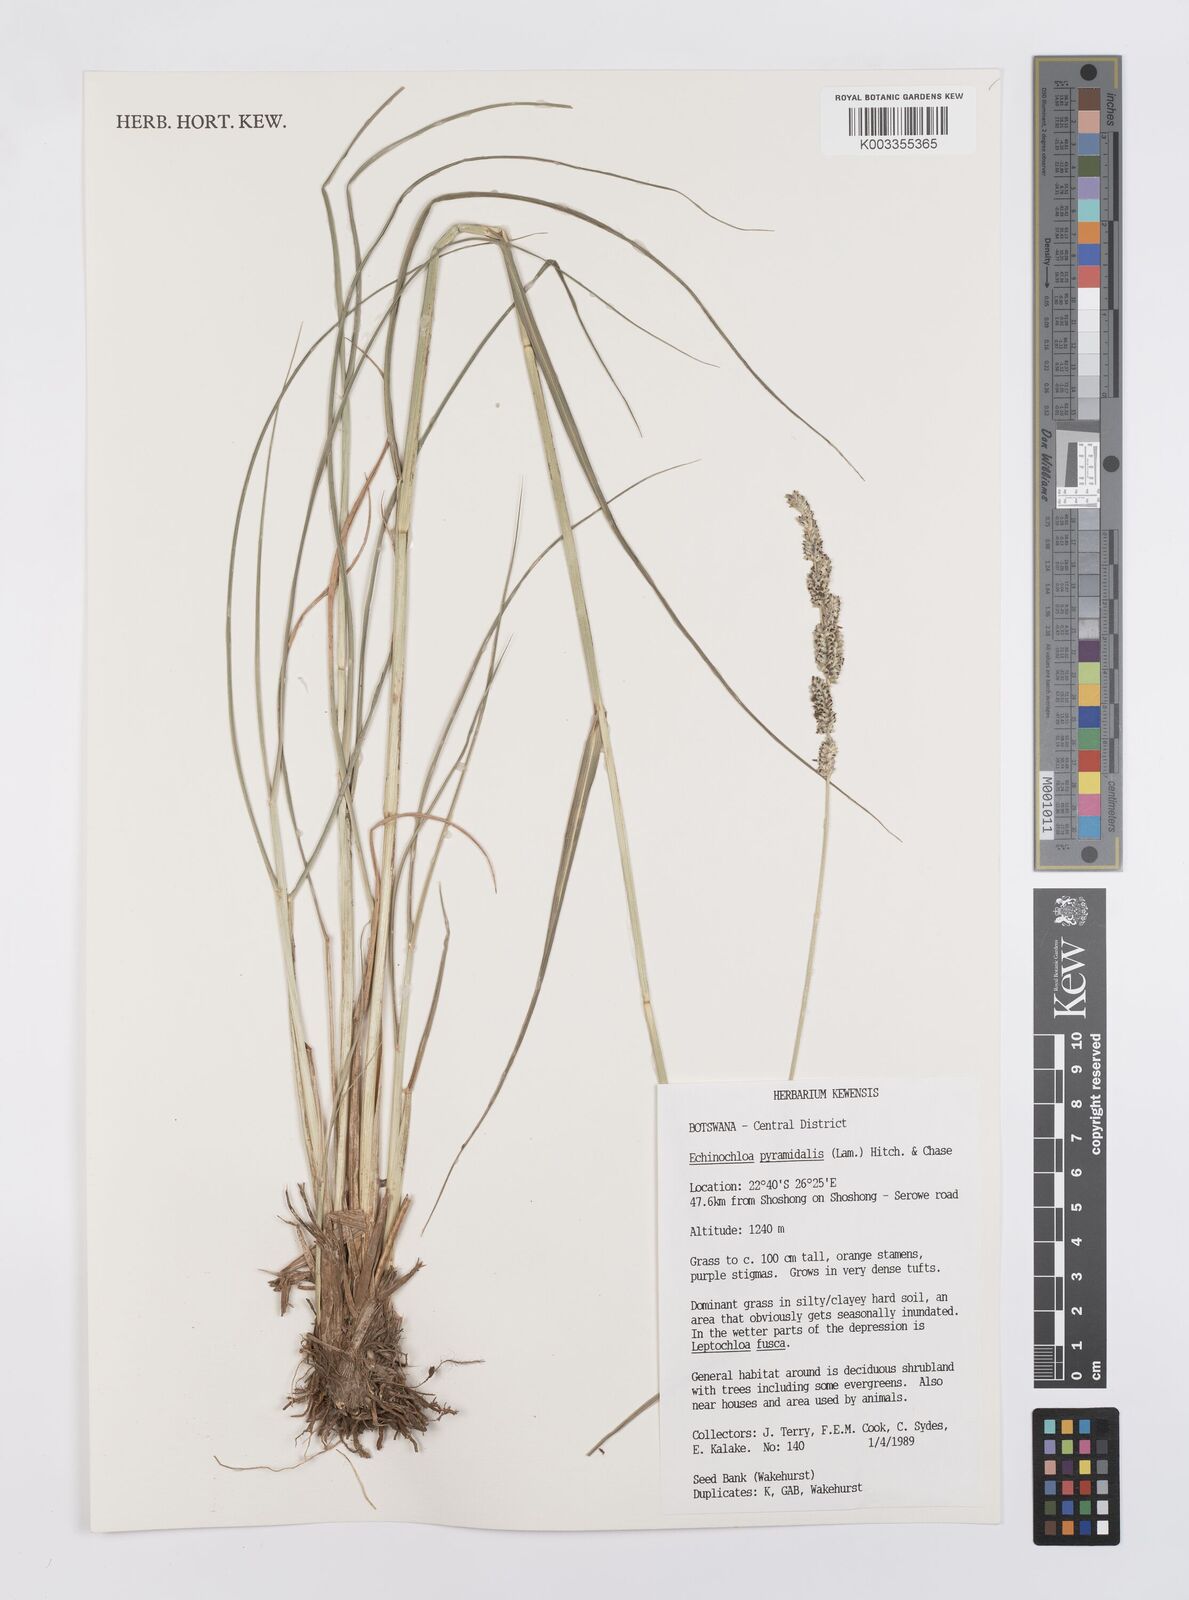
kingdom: Plantae
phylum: Tracheophyta
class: Liliopsida
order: Poales
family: Poaceae
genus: Echinochloa
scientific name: Echinochloa pyramidalis
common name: Antelope grass
